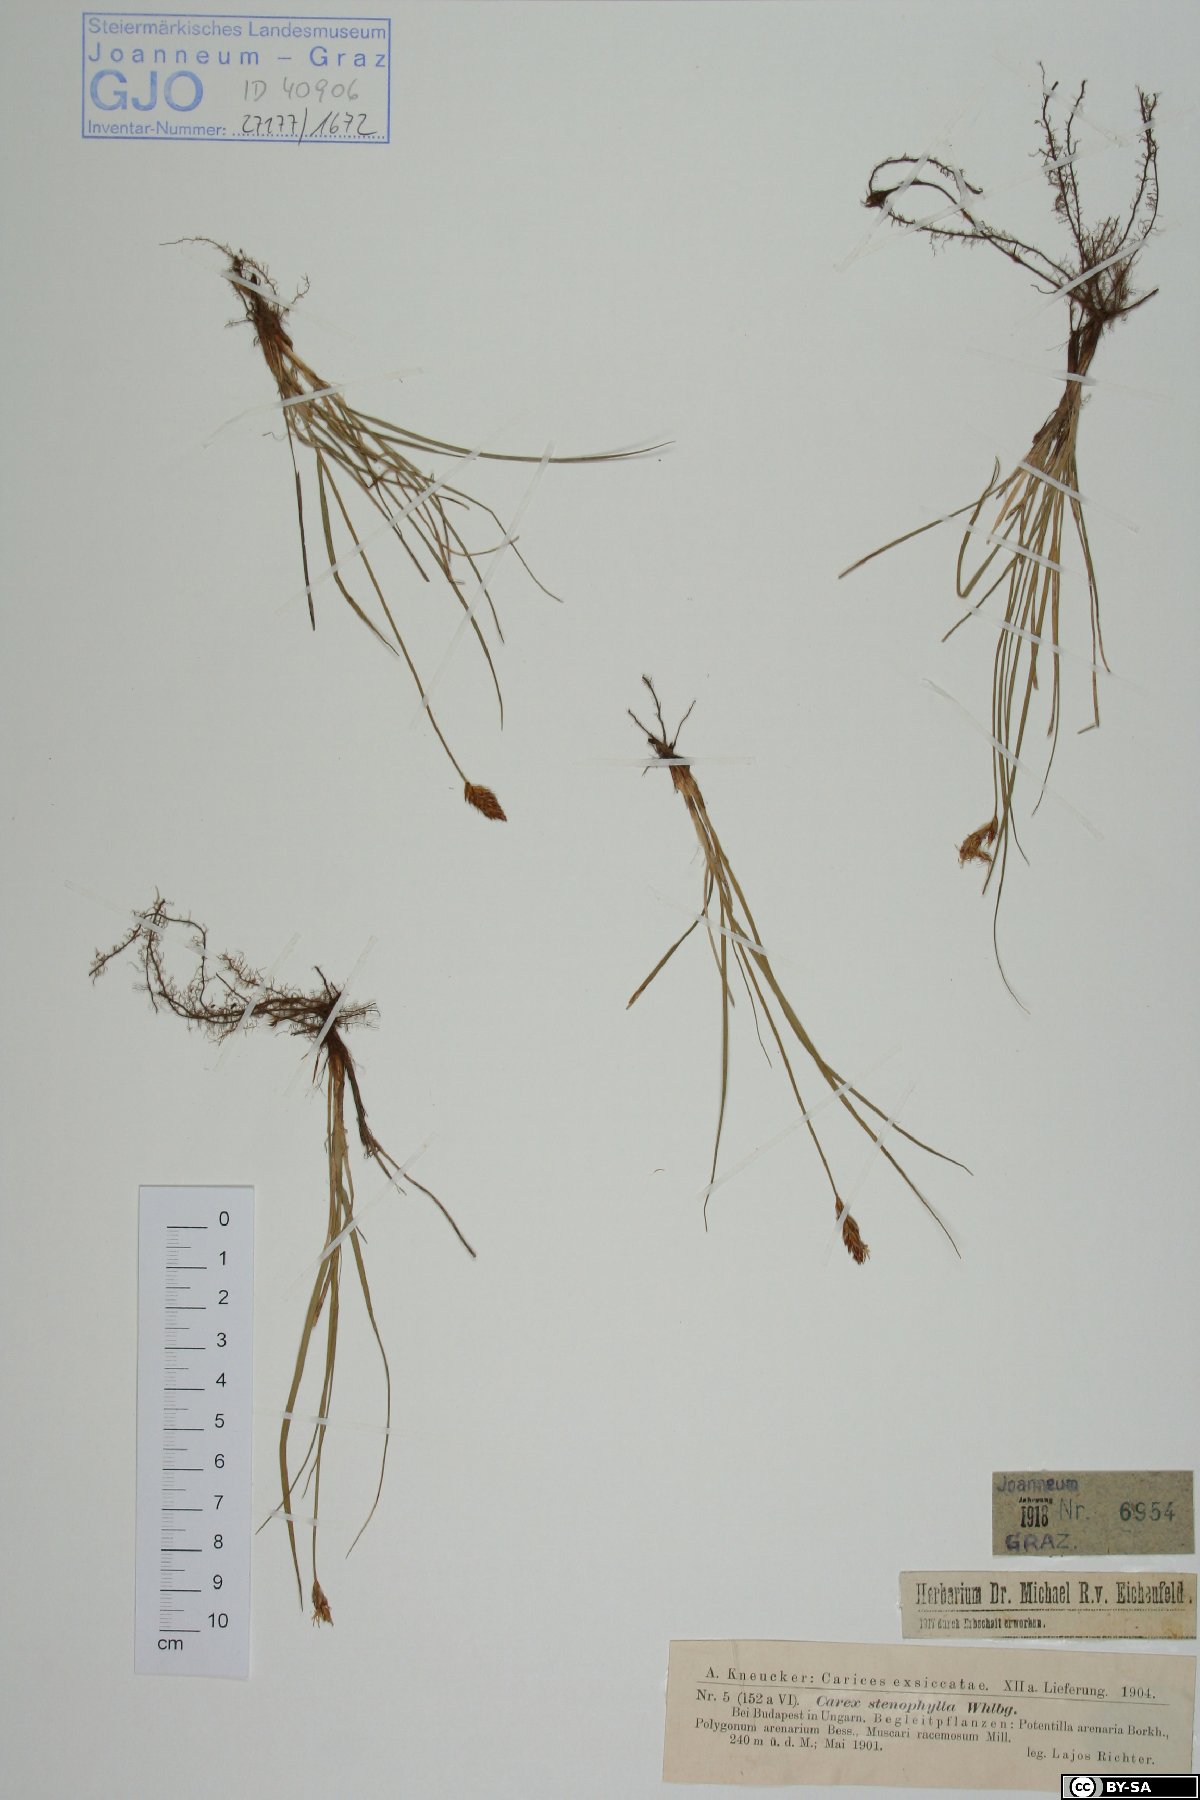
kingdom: Plantae
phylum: Tracheophyta
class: Liliopsida
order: Poales
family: Cyperaceae
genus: Carex
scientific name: Carex stenophylla
